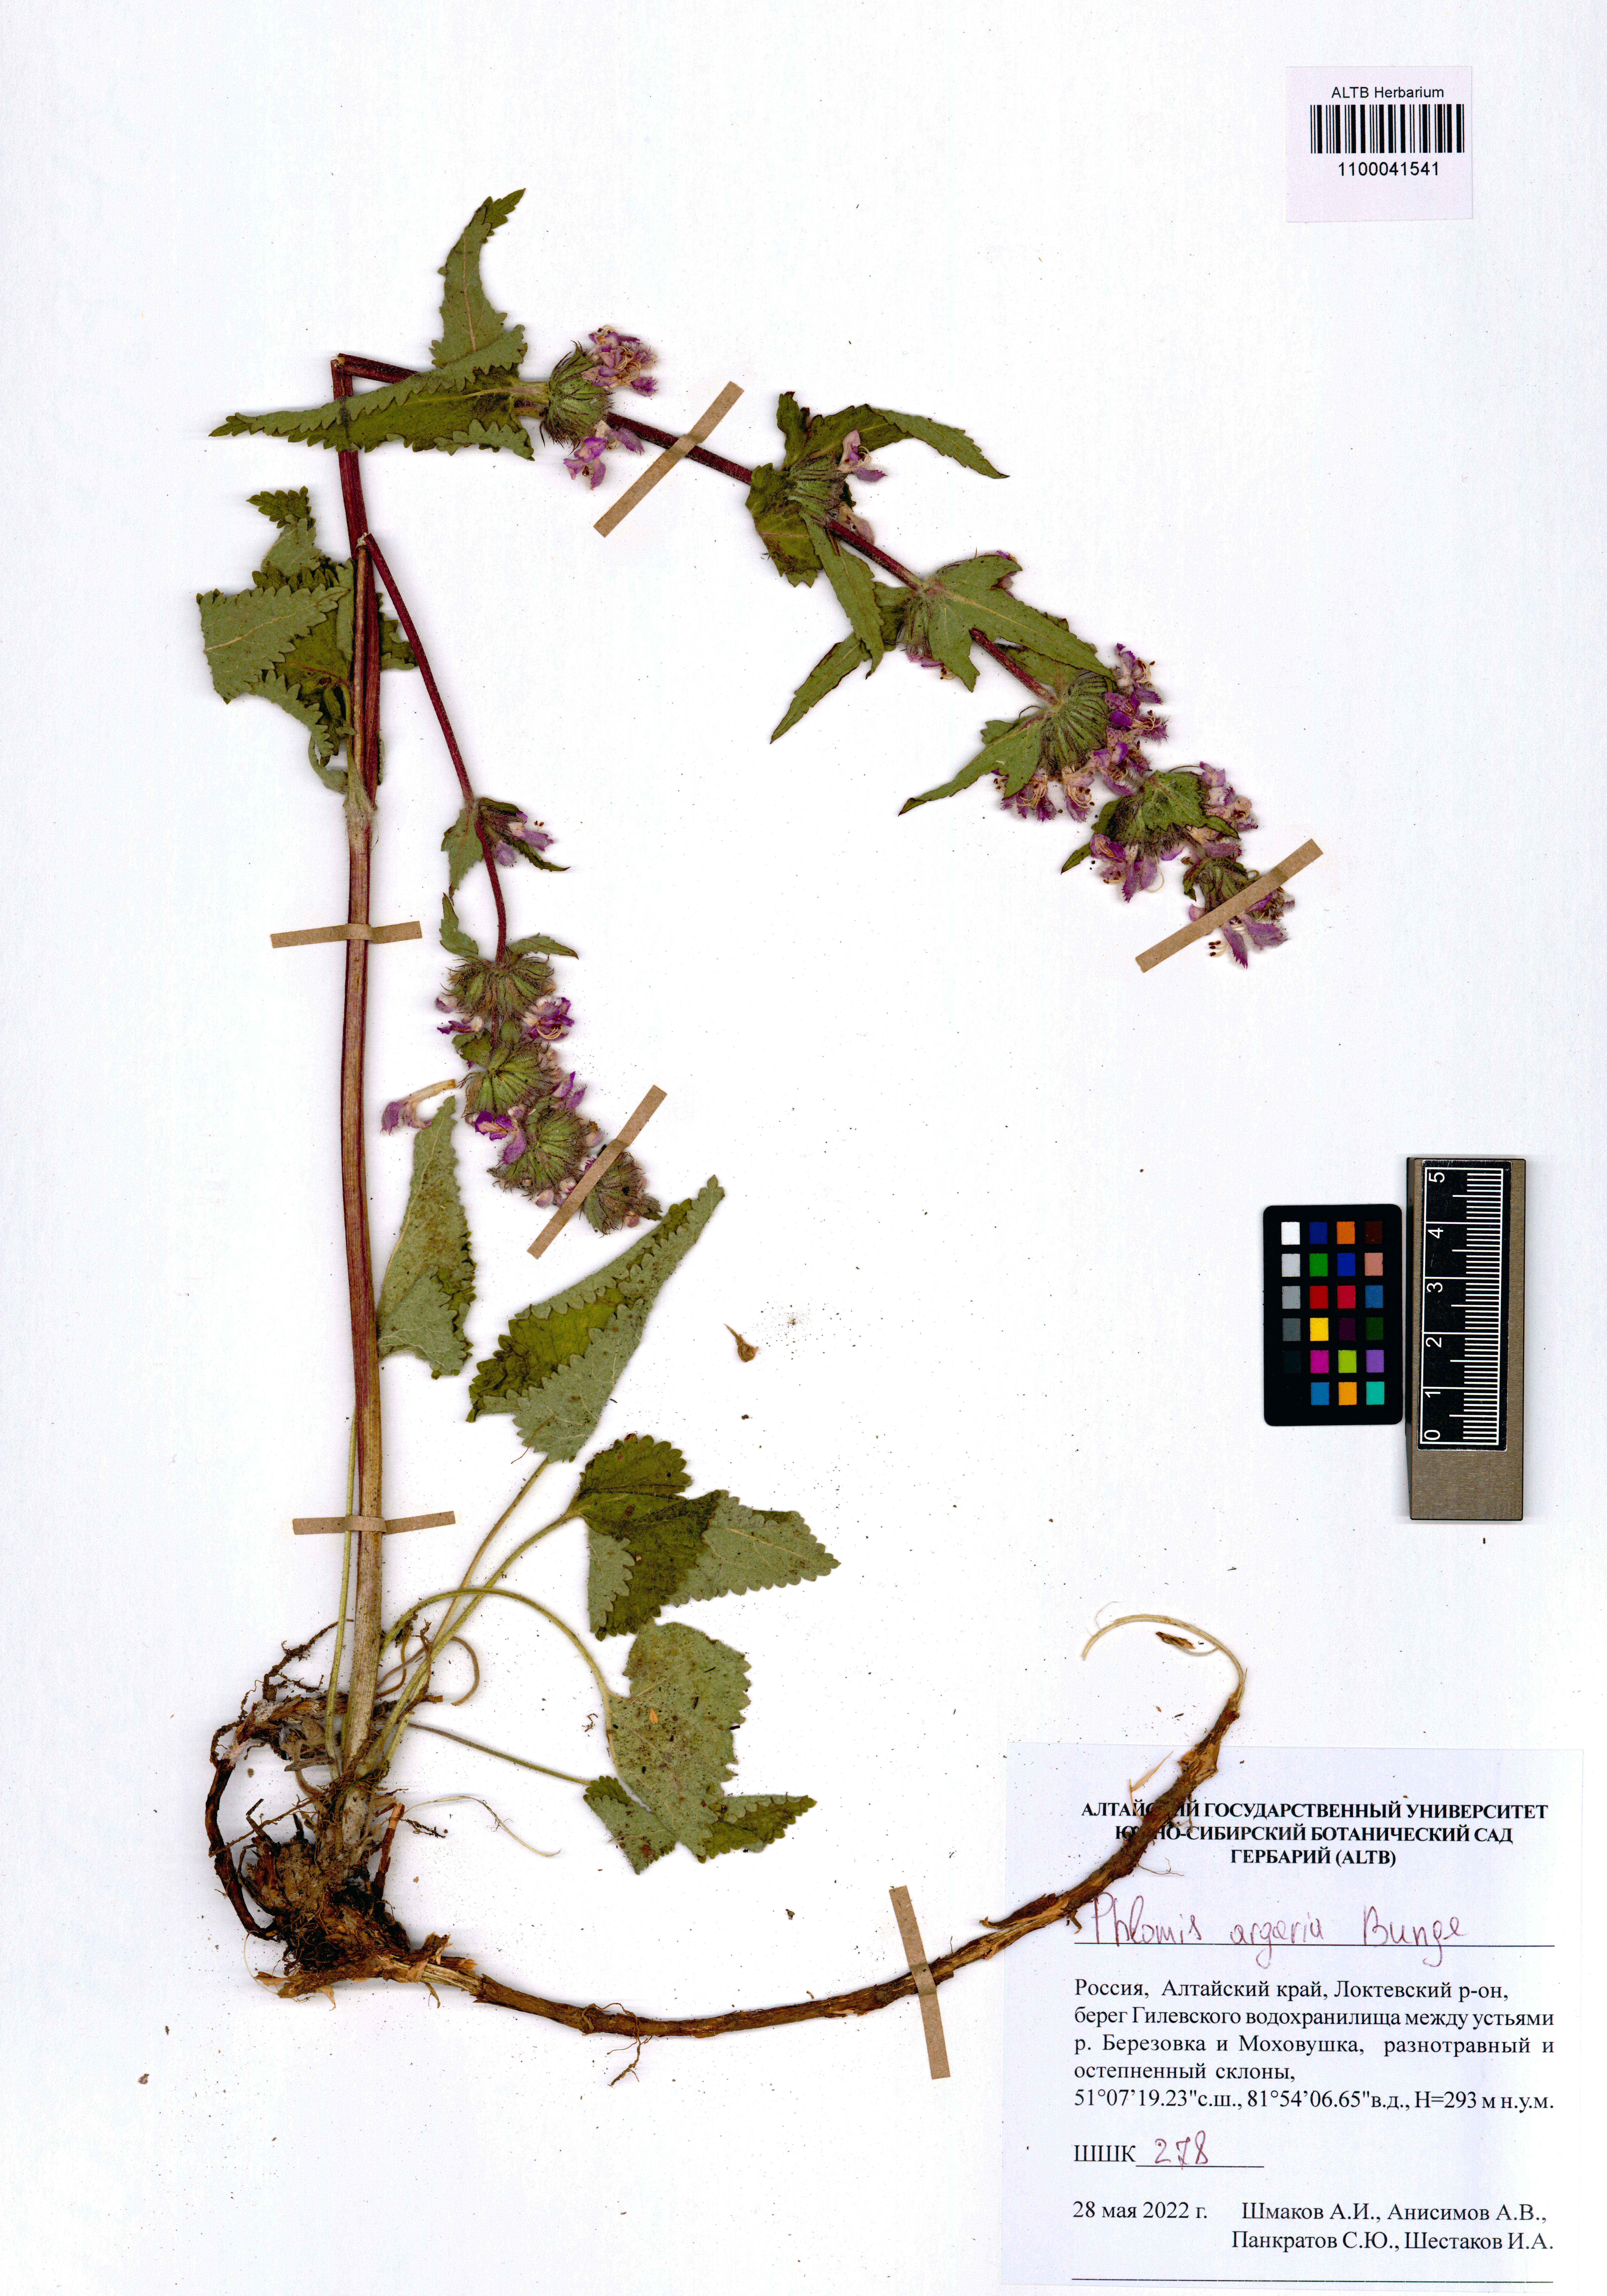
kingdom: Plantae
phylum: Tracheophyta
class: Magnoliopsida
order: Lamiales
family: Lamiaceae
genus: Phlomoides
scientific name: Phlomoides agraria
